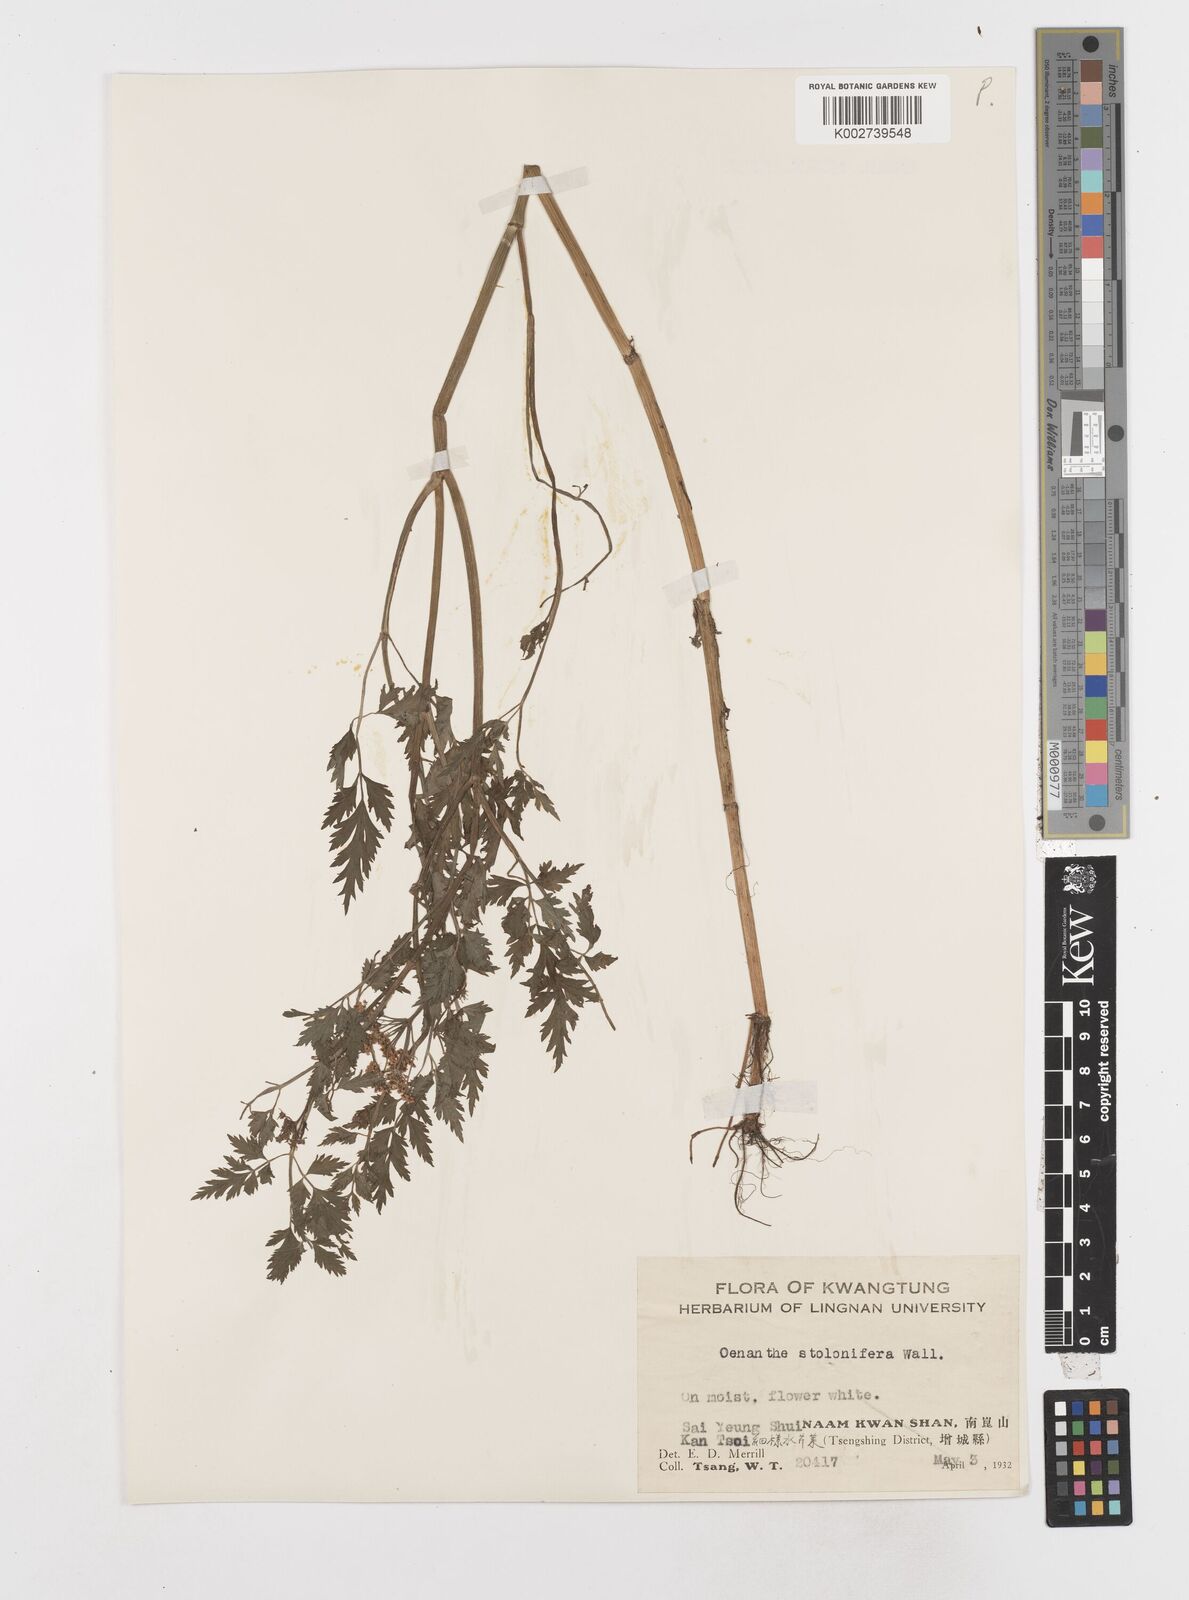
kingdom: Plantae
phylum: Tracheophyta
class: Magnoliopsida
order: Apiales
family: Apiaceae
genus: Oenanthe
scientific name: Oenanthe javanica
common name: Java water-dropwort
